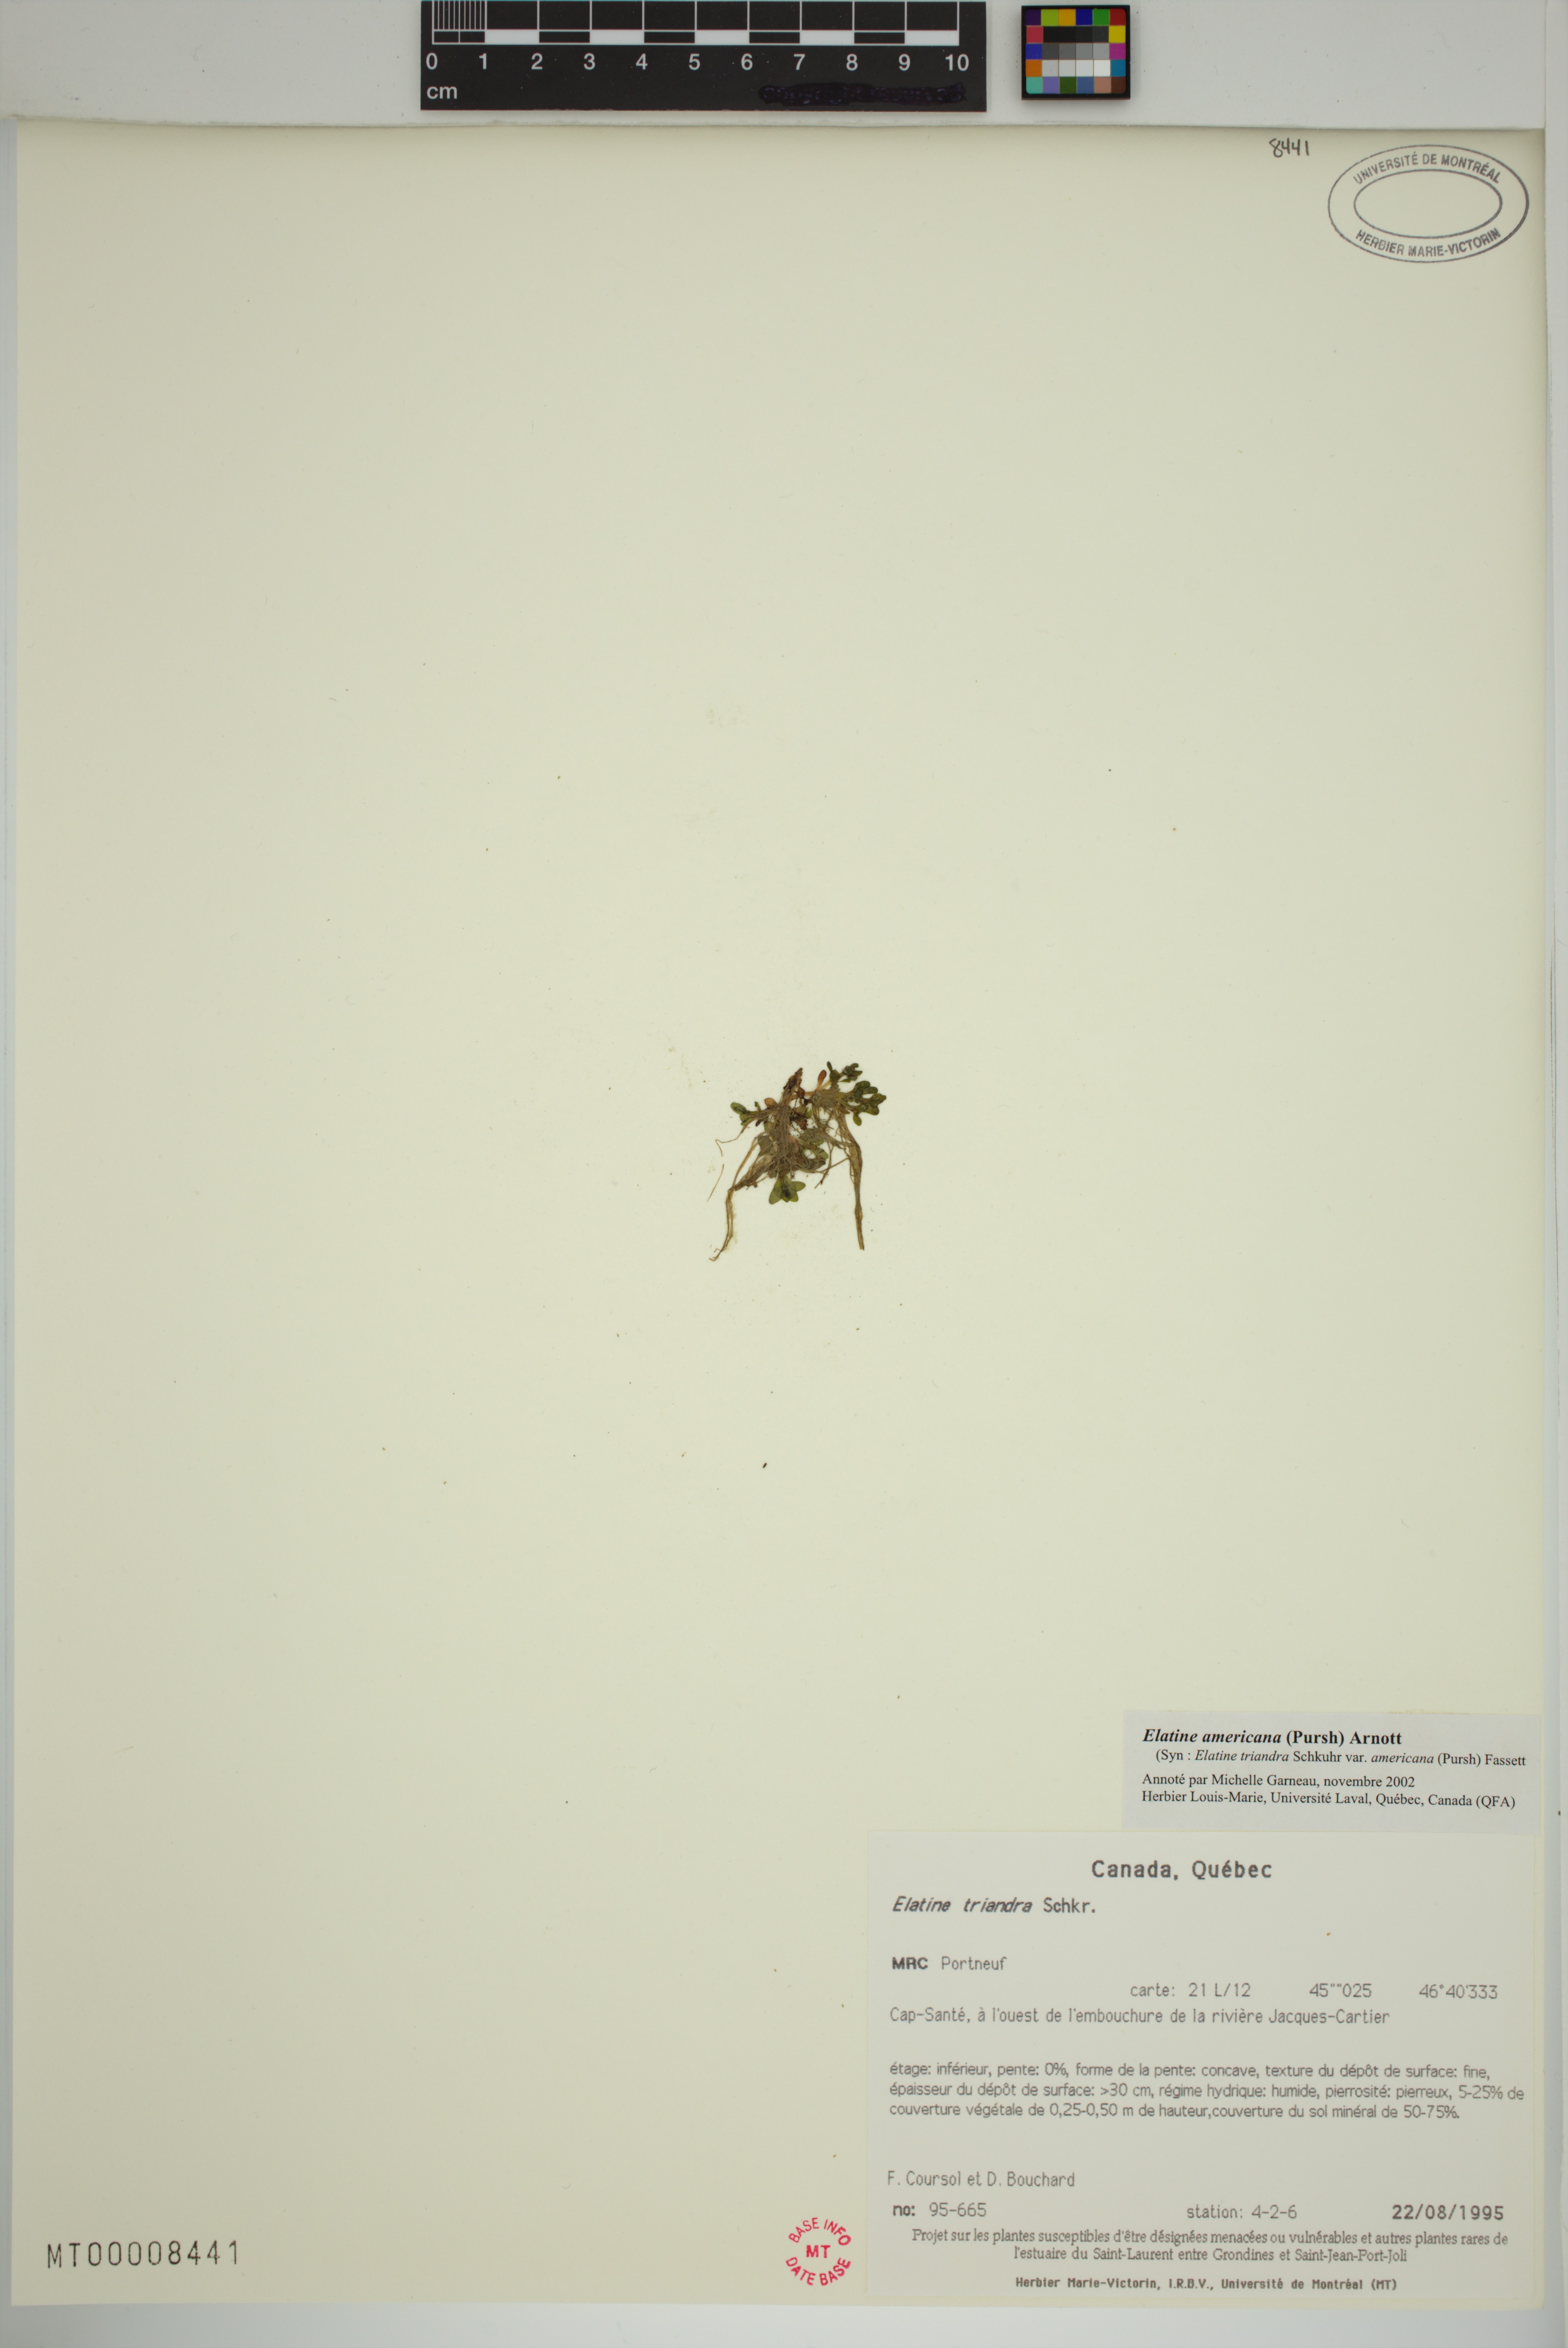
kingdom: Plantae
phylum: Tracheophyta
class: Magnoliopsida
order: Malpighiales
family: Elatinaceae
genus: Elatine
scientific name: Elatine americana
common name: American waterwort
